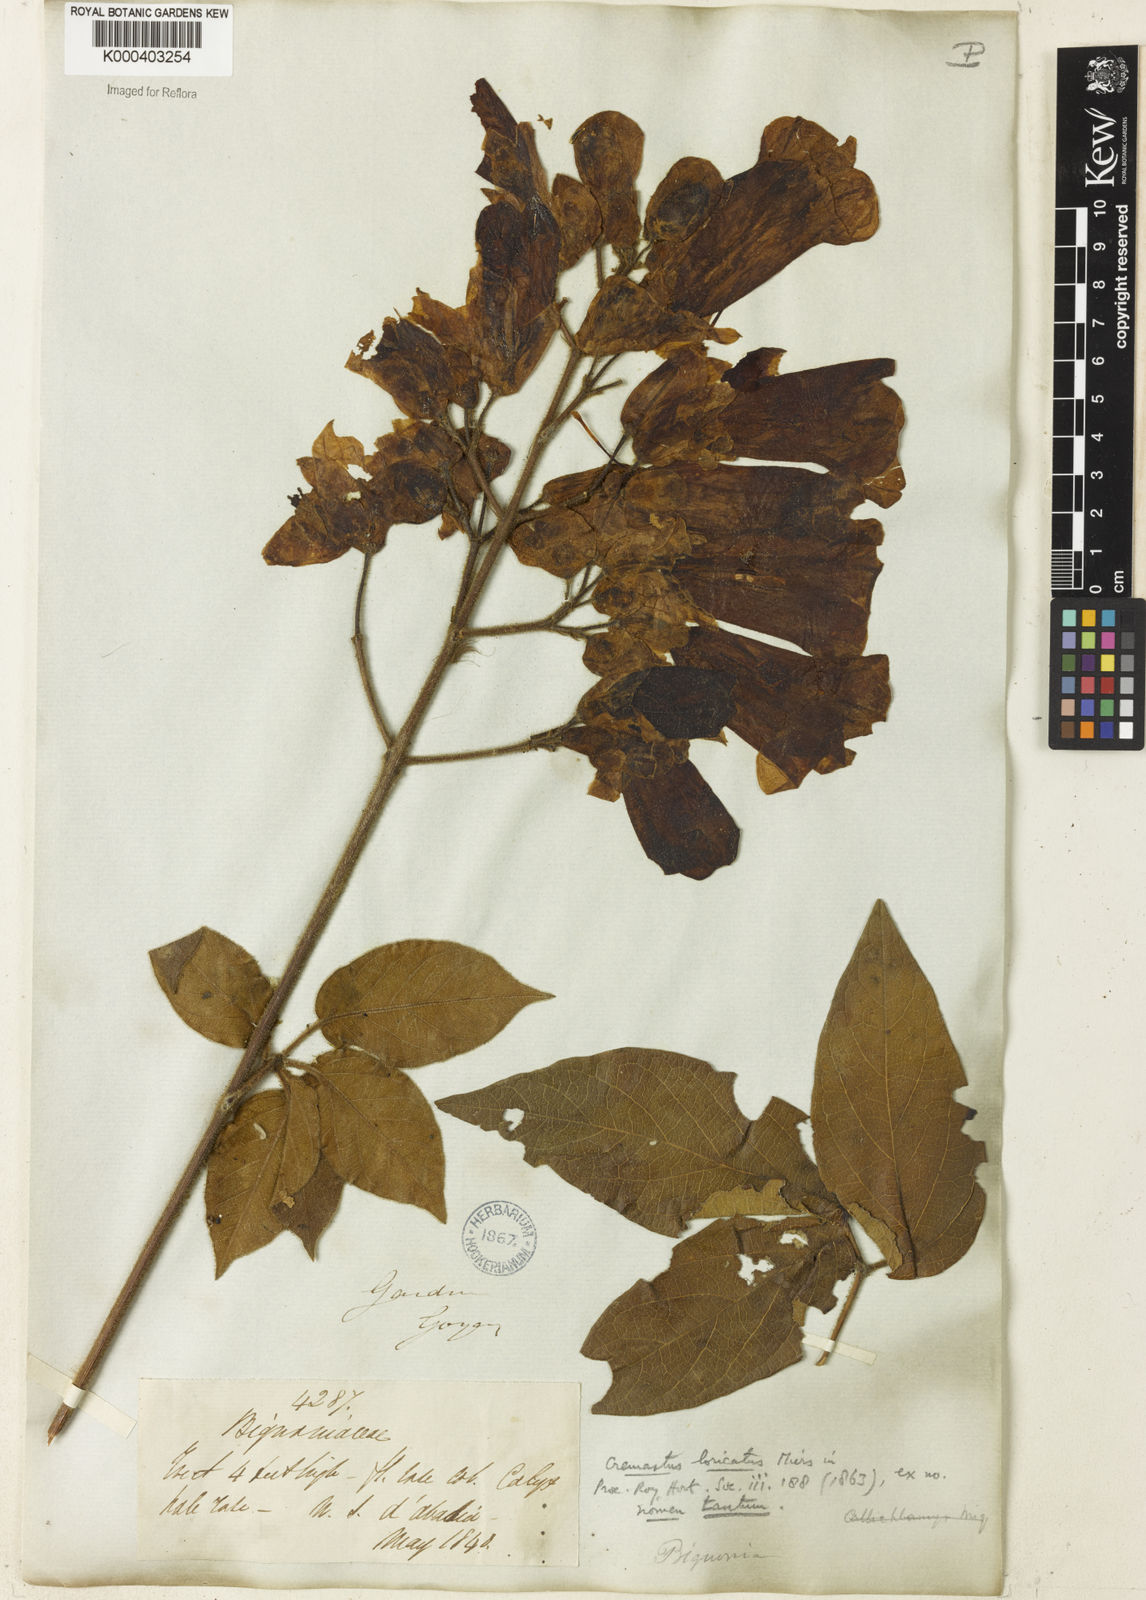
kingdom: Plantae
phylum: Tracheophyta
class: Magnoliopsida
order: Rosales
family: Rhamnaceae
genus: Arrabidaea
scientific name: Arrabidaea
